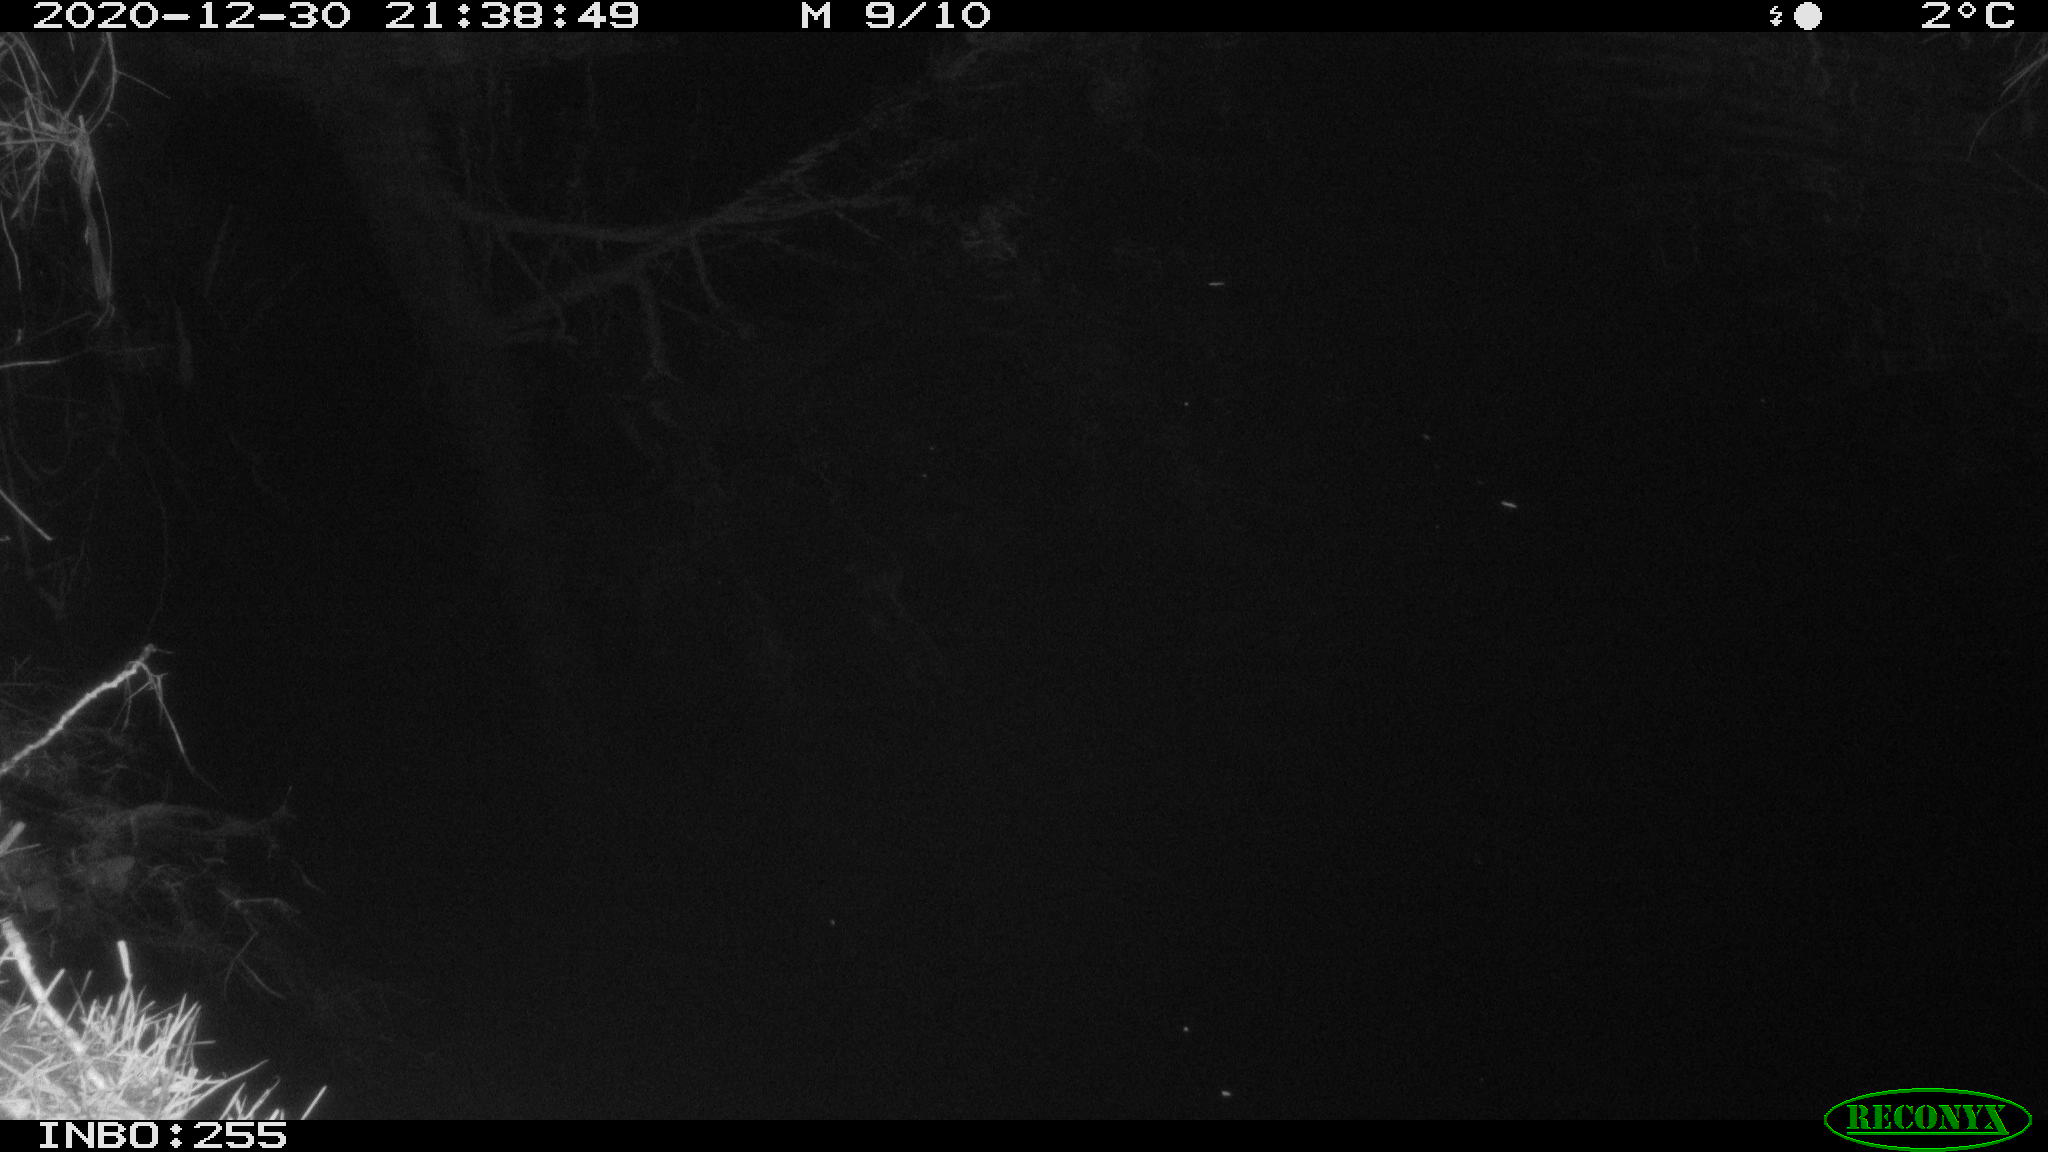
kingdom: Animalia
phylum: Chordata
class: Mammalia
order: Rodentia
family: Muridae
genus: Rattus
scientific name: Rattus norvegicus
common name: Brown rat
